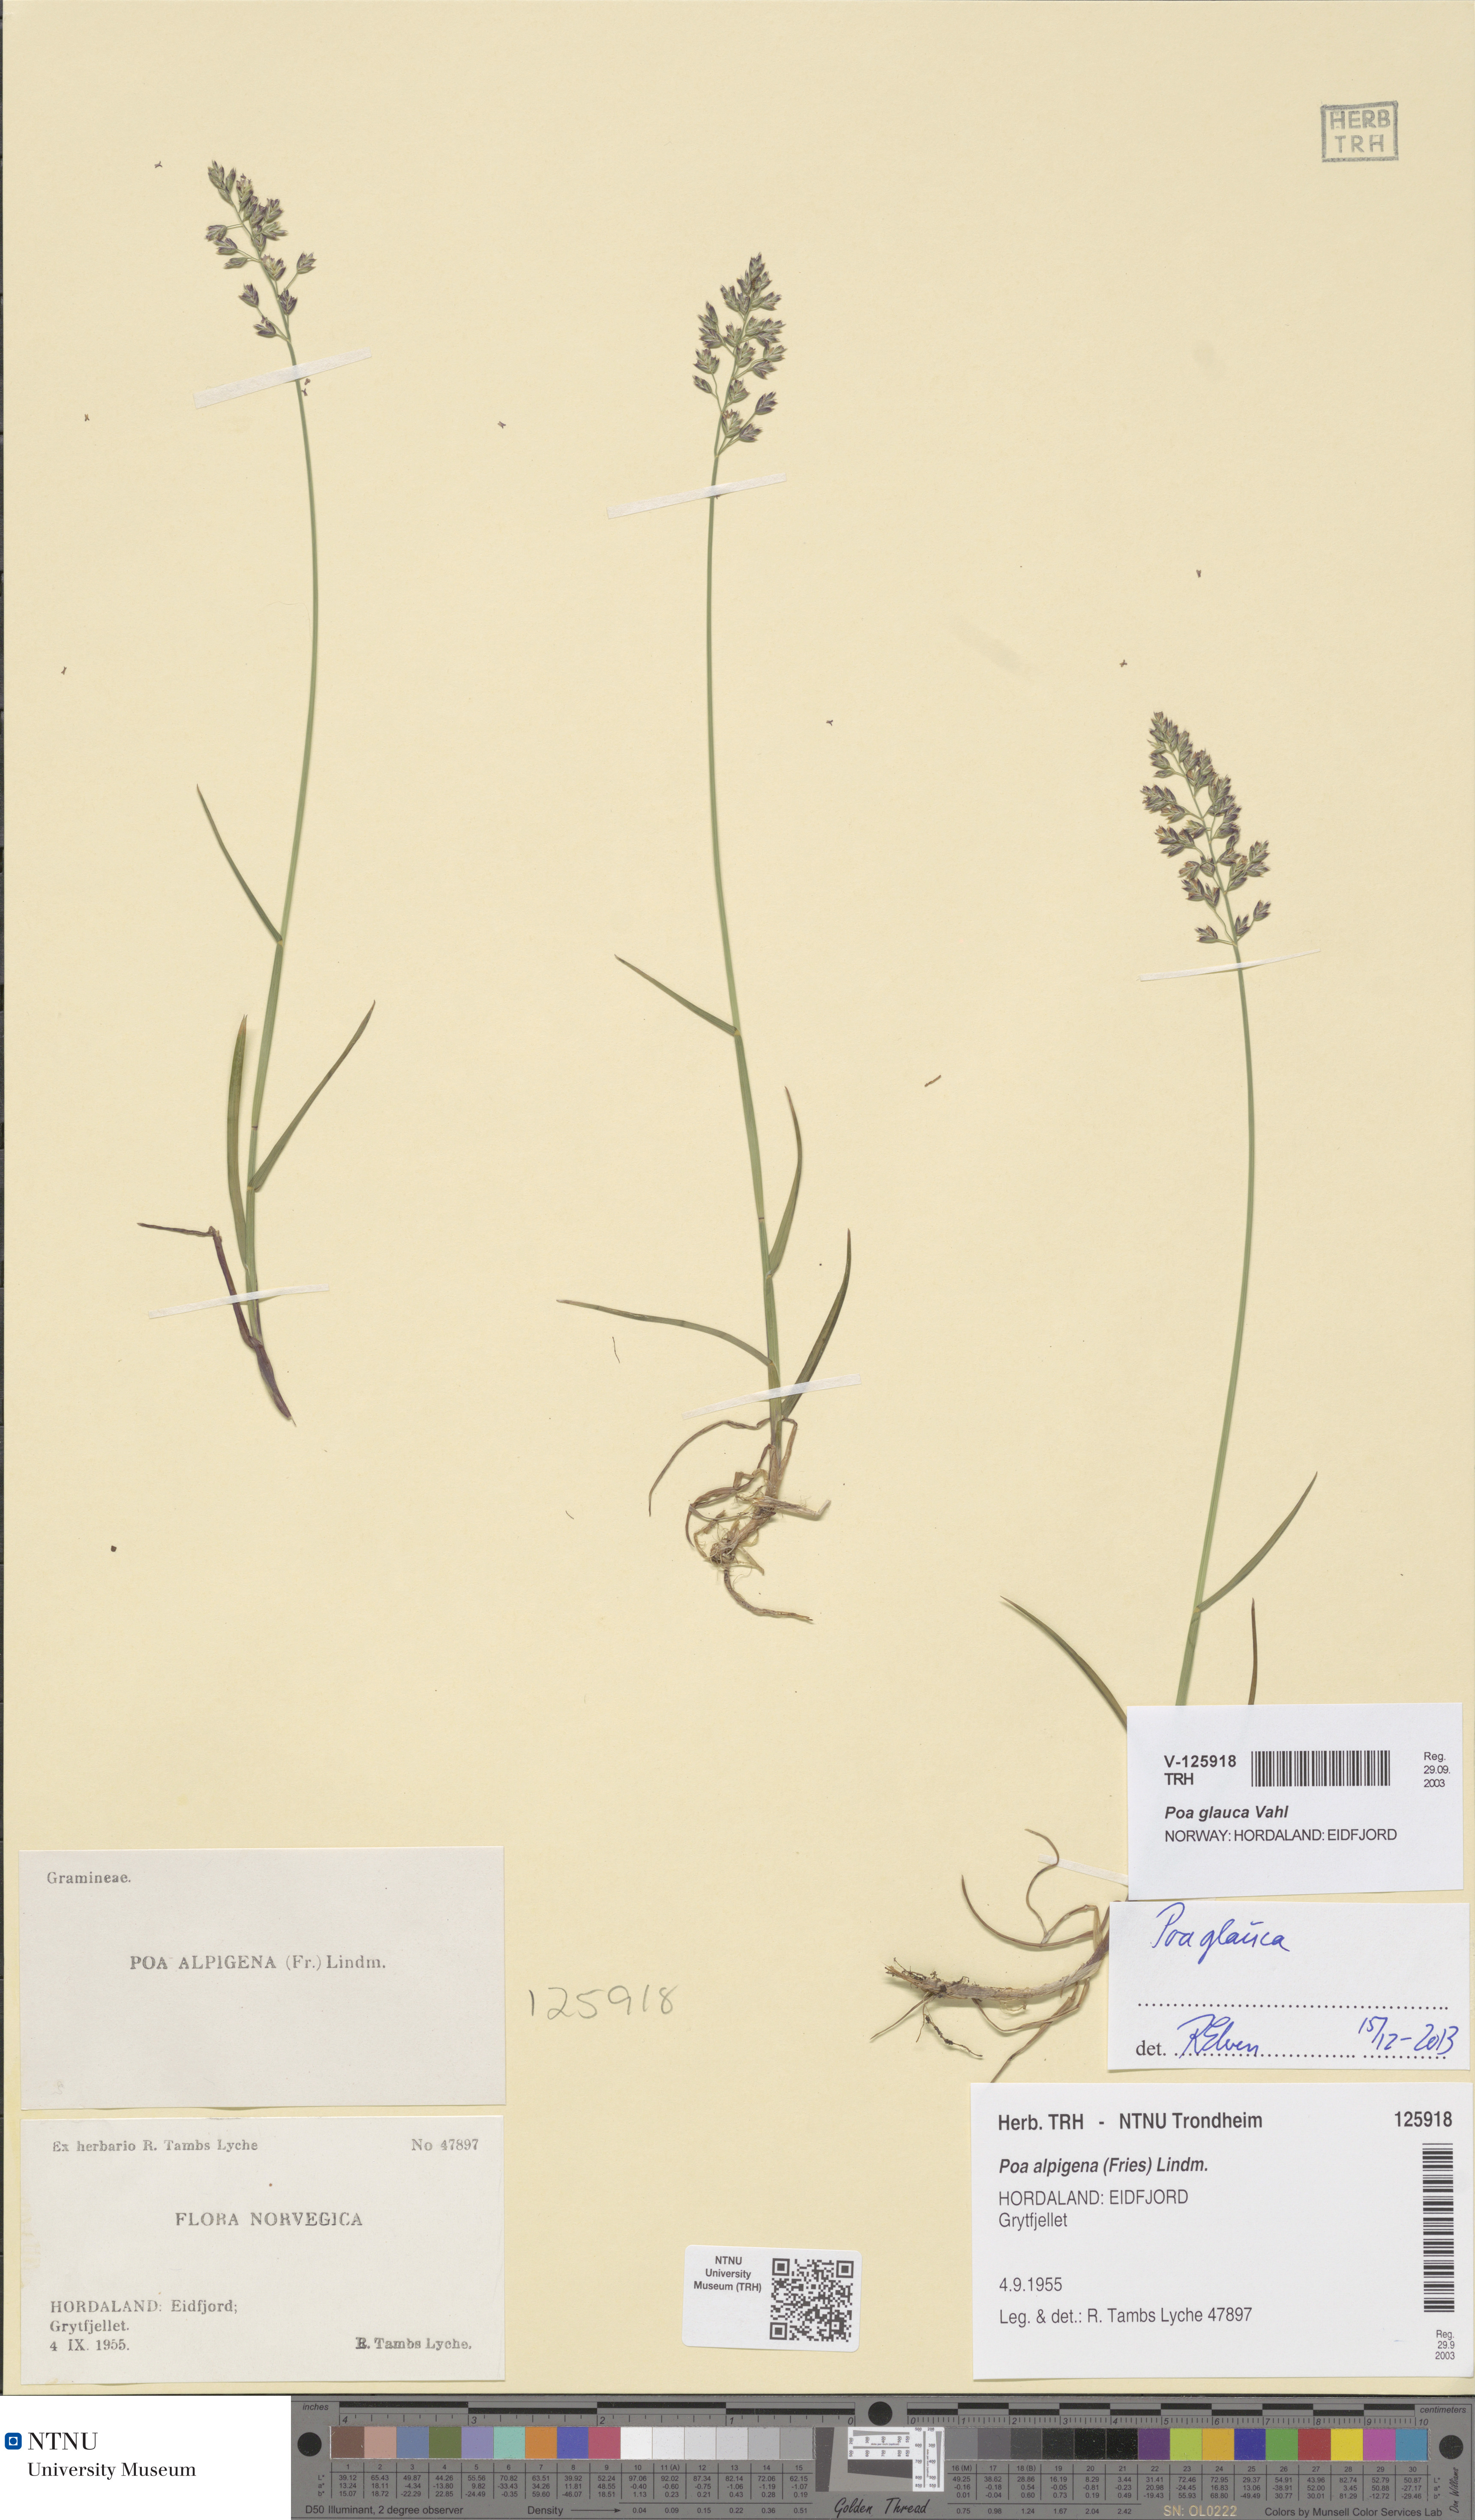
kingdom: Plantae
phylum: Tracheophyta
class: Liliopsida
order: Poales
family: Poaceae
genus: Poa
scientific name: Poa glauca
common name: Glaucous bluegrass
